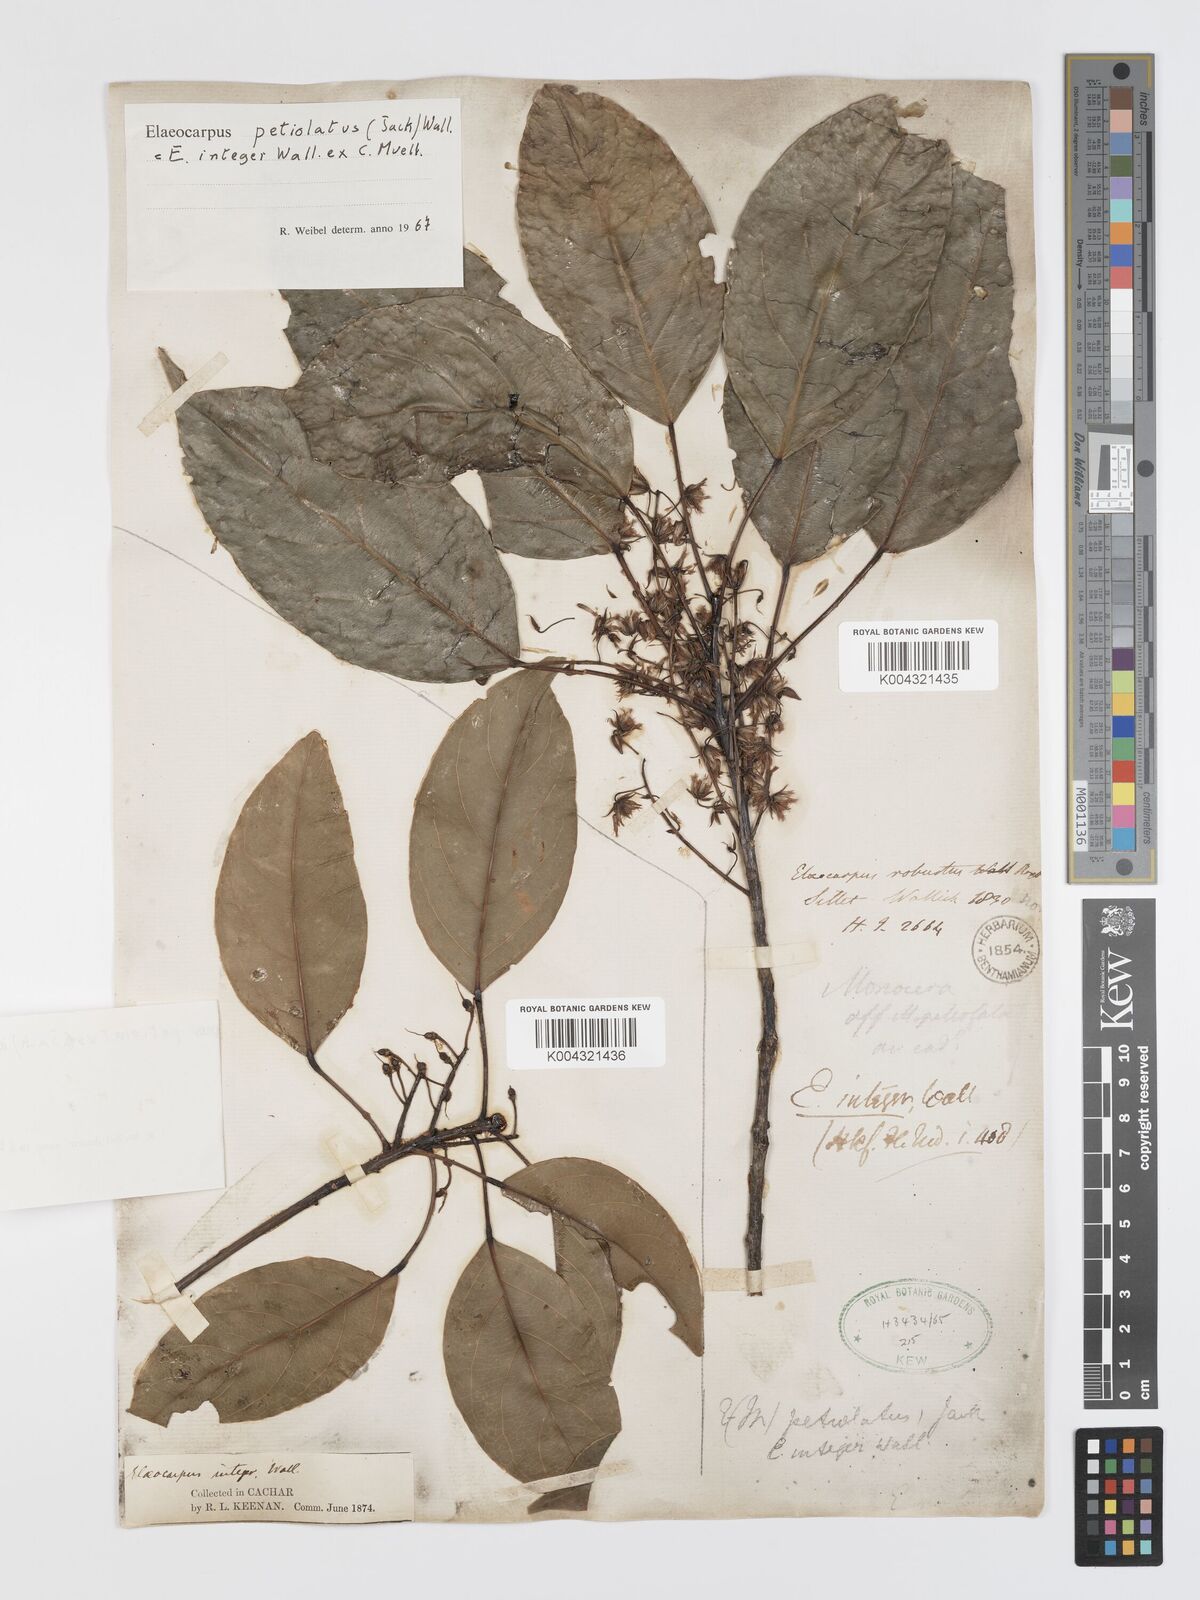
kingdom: Plantae
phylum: Tracheophyta
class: Magnoliopsida
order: Oxalidales
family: Elaeocarpaceae
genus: Elaeocarpus
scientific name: Elaeocarpus petiolatus
